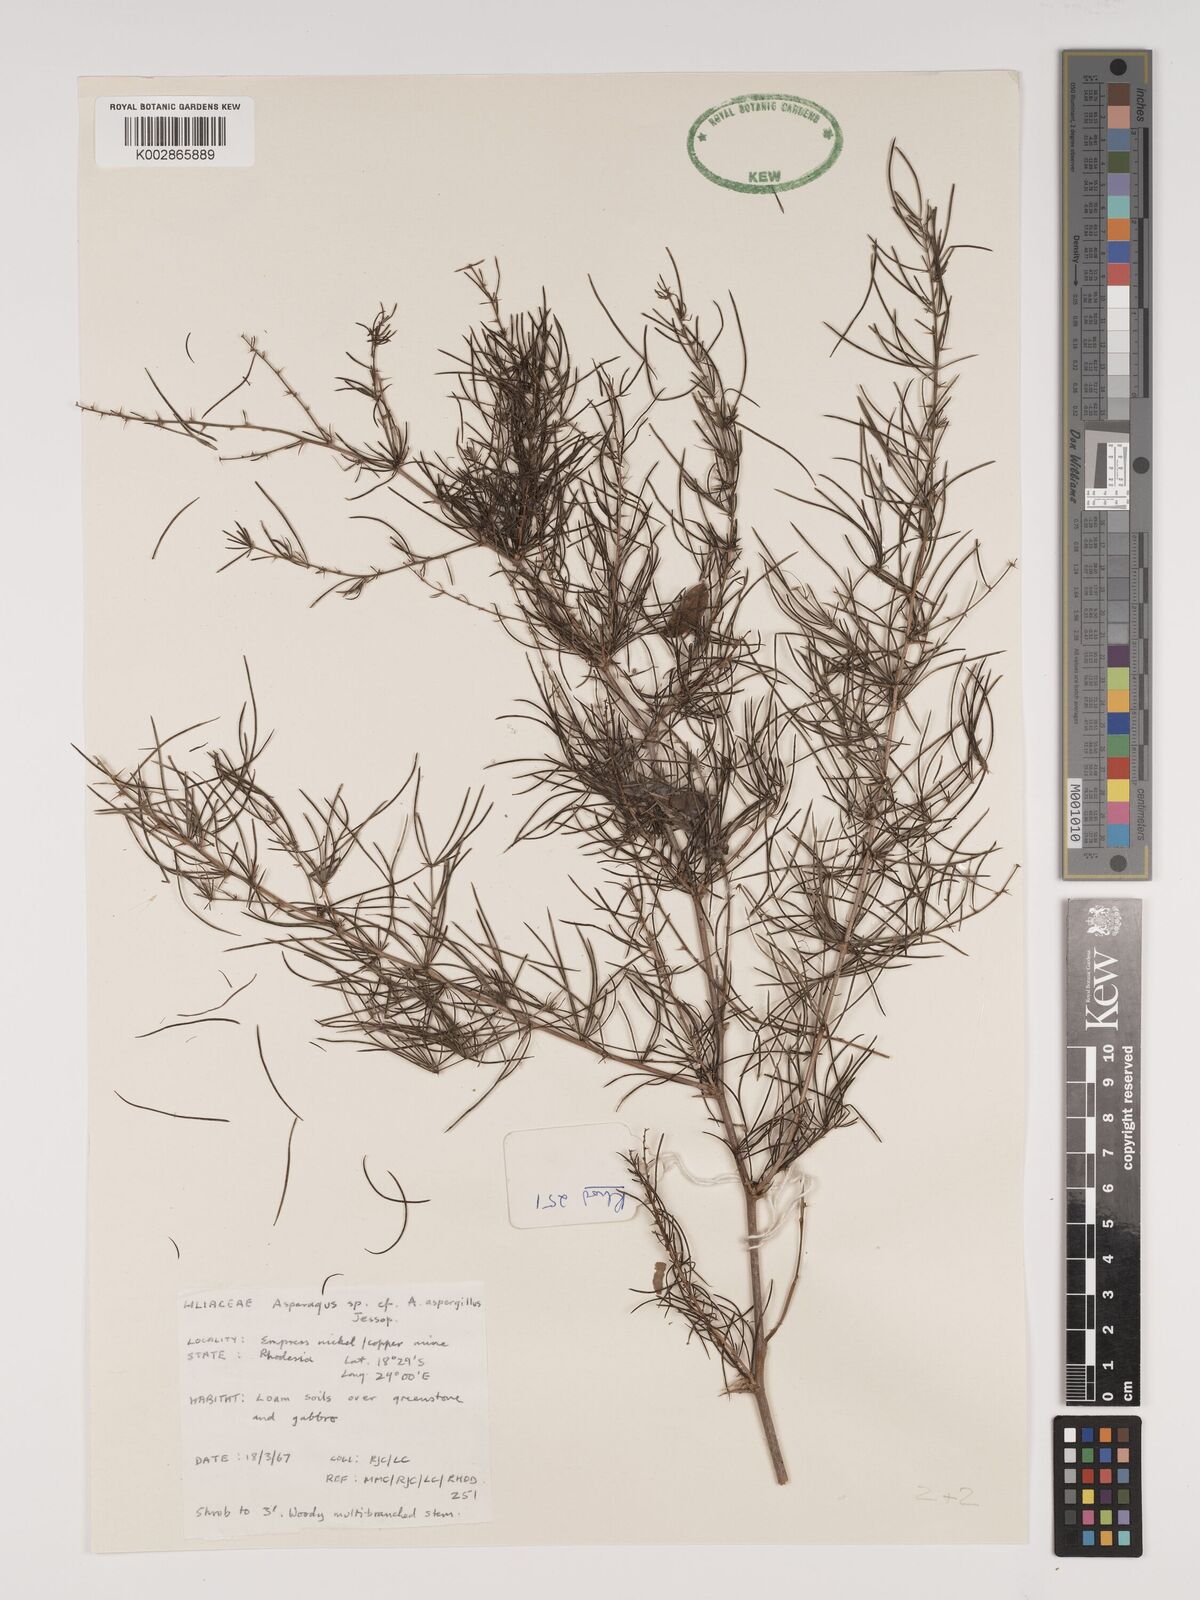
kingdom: Plantae
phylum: Tracheophyta
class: Liliopsida
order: Asparagales
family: Asparagaceae
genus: Asparagus
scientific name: Asparagus aspergillus
